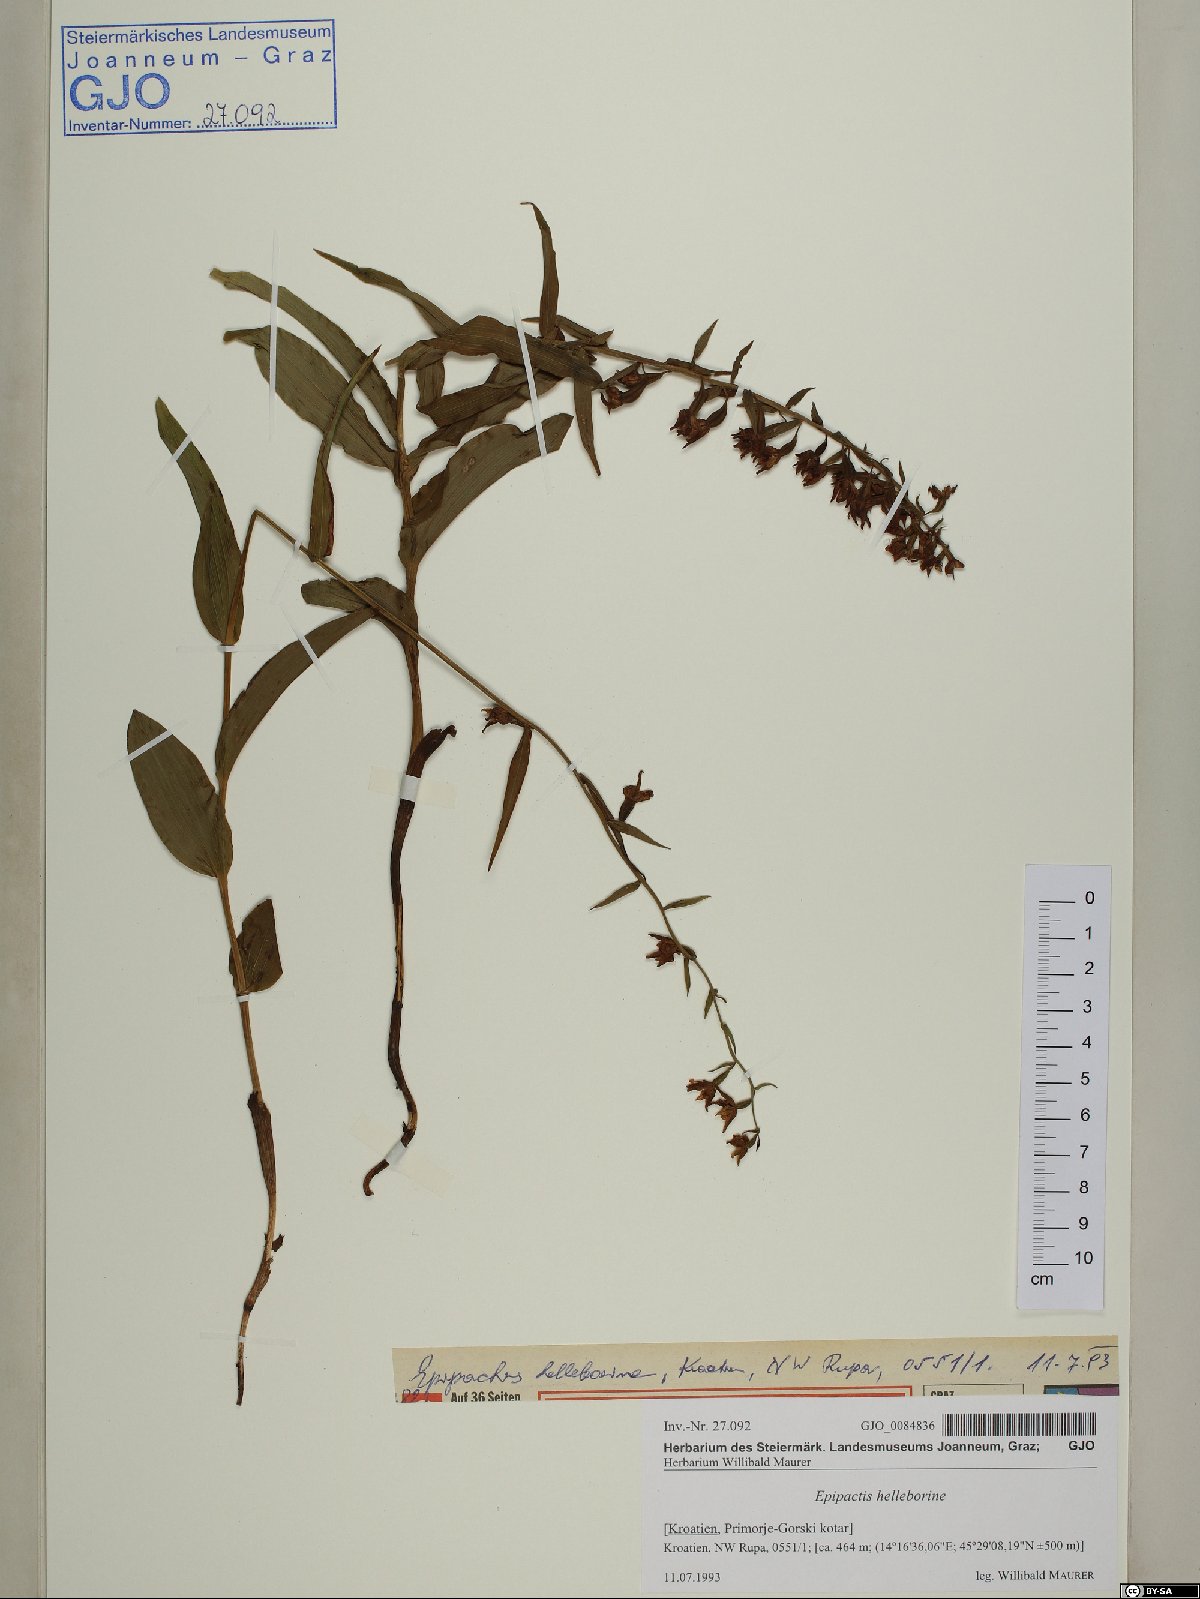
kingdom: Plantae
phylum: Tracheophyta
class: Liliopsida
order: Asparagales
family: Orchidaceae
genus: Epipactis
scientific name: Epipactis helleborine
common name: Broad-leaved helleborine
